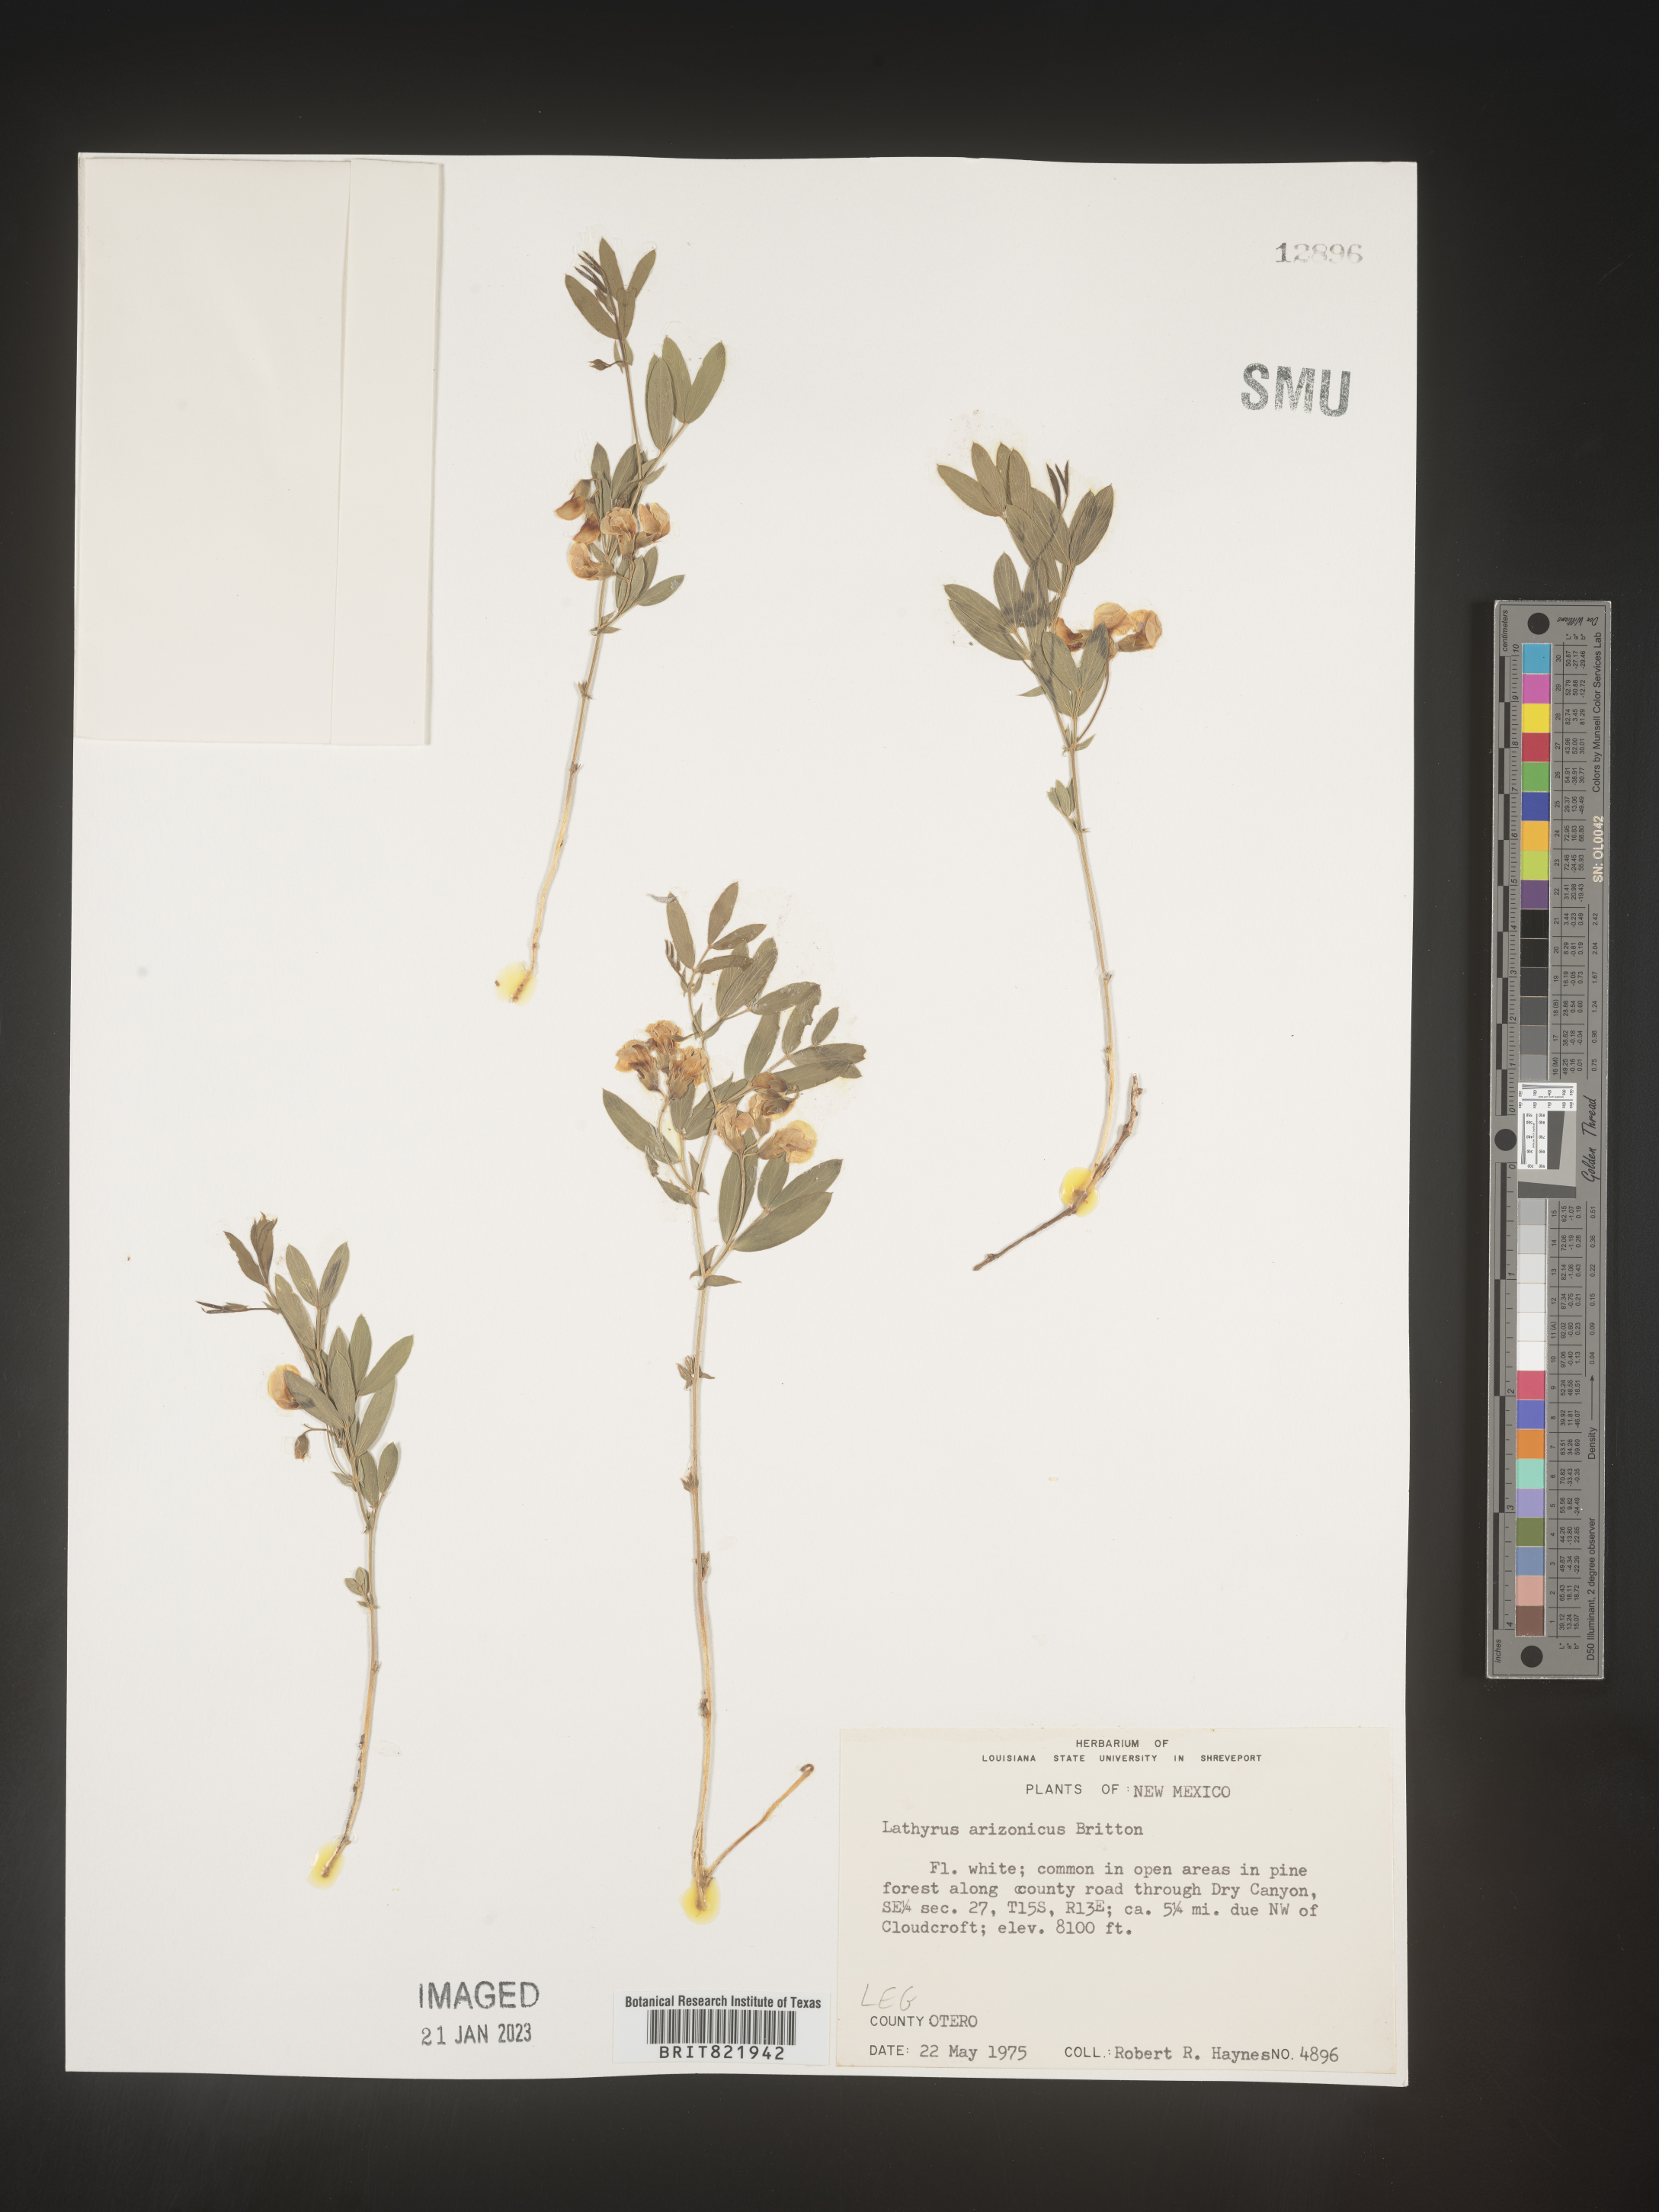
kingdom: Plantae
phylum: Tracheophyta
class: Magnoliopsida
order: Fabales
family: Fabaceae
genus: Lathyrus
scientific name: Lathyrus hirsutus
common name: Hairy vetchling
